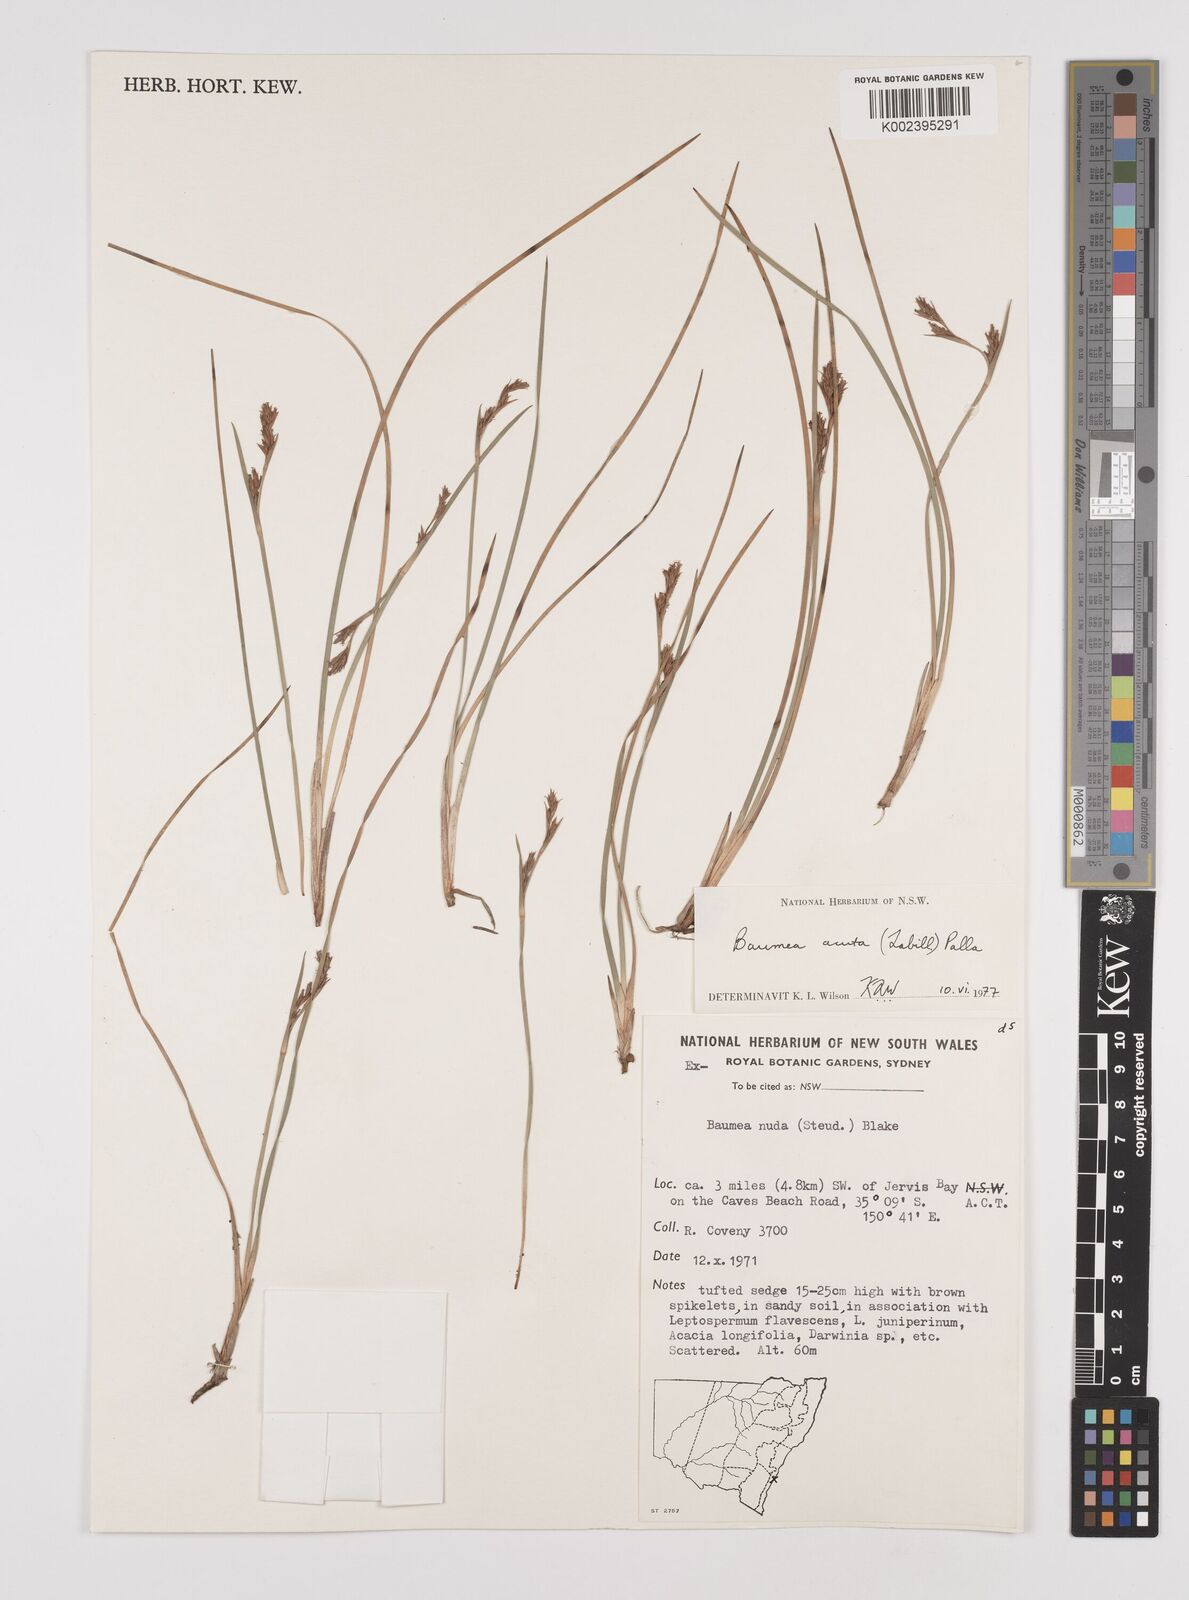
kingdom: Plantae
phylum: Tracheophyta
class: Liliopsida
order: Poales
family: Cyperaceae
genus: Machaerina
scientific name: Machaerina acuta
